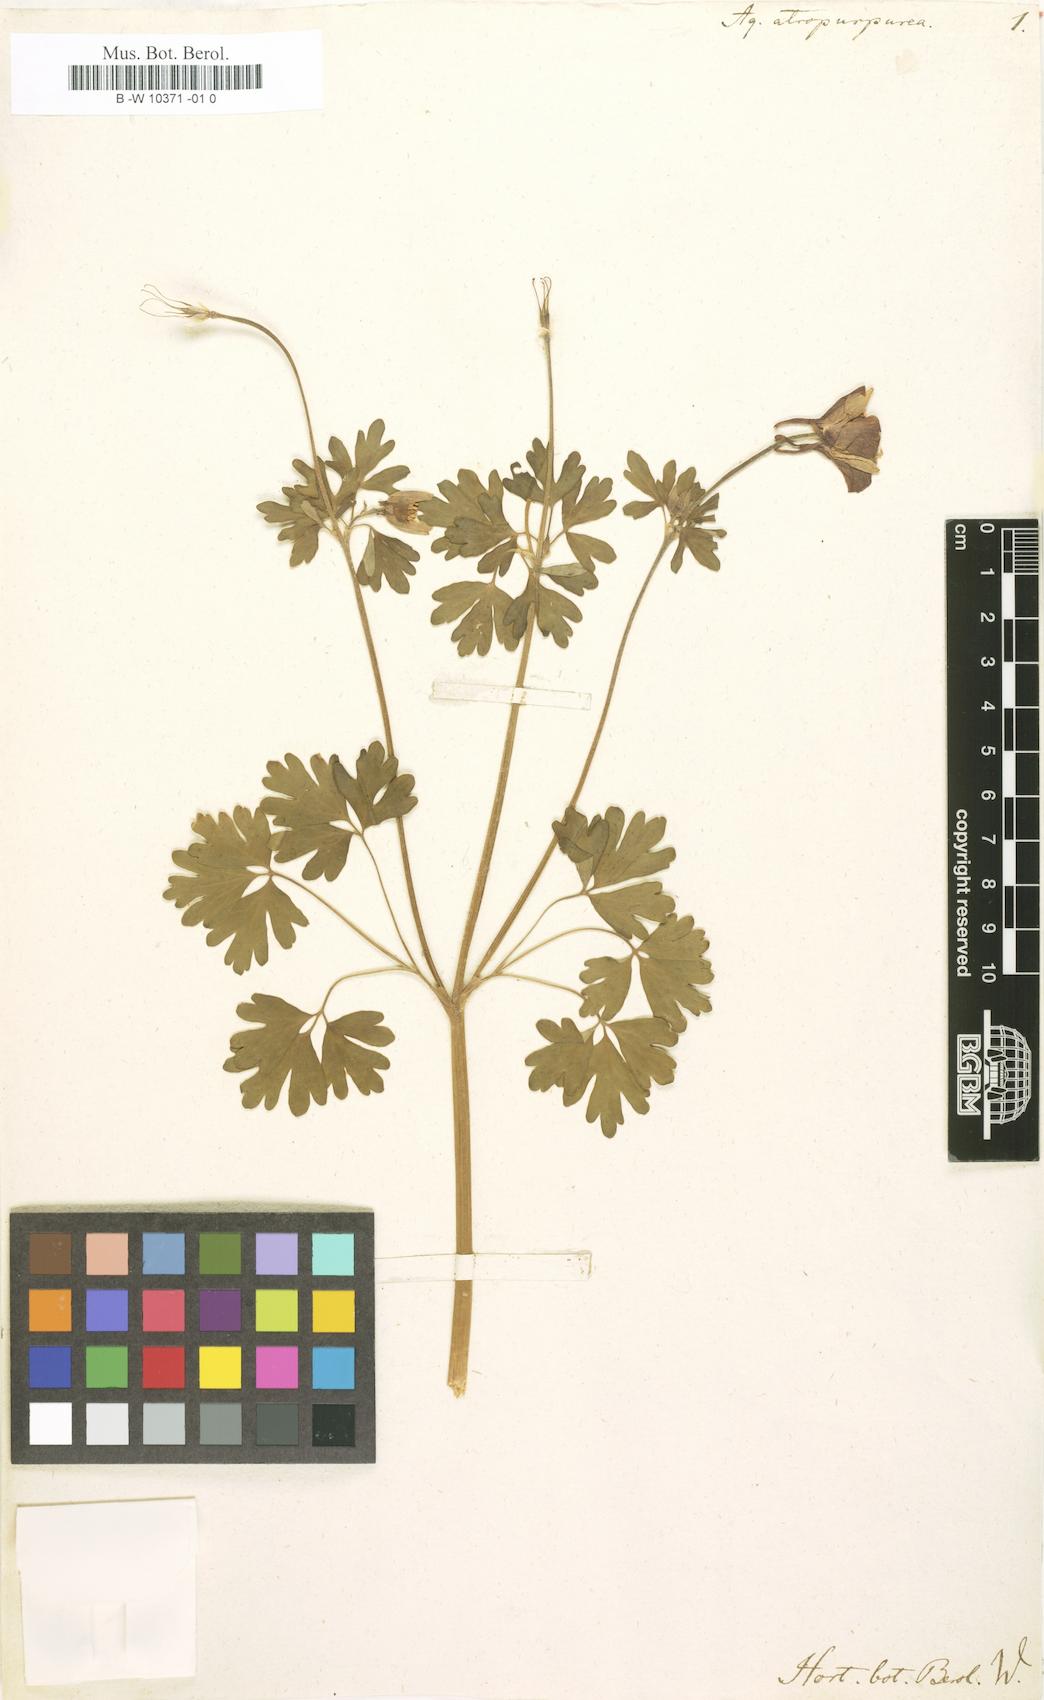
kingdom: Plantae
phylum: Tracheophyta
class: Magnoliopsida
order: Ranunculales
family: Ranunculaceae
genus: Aquilegia
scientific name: Aquilegia
